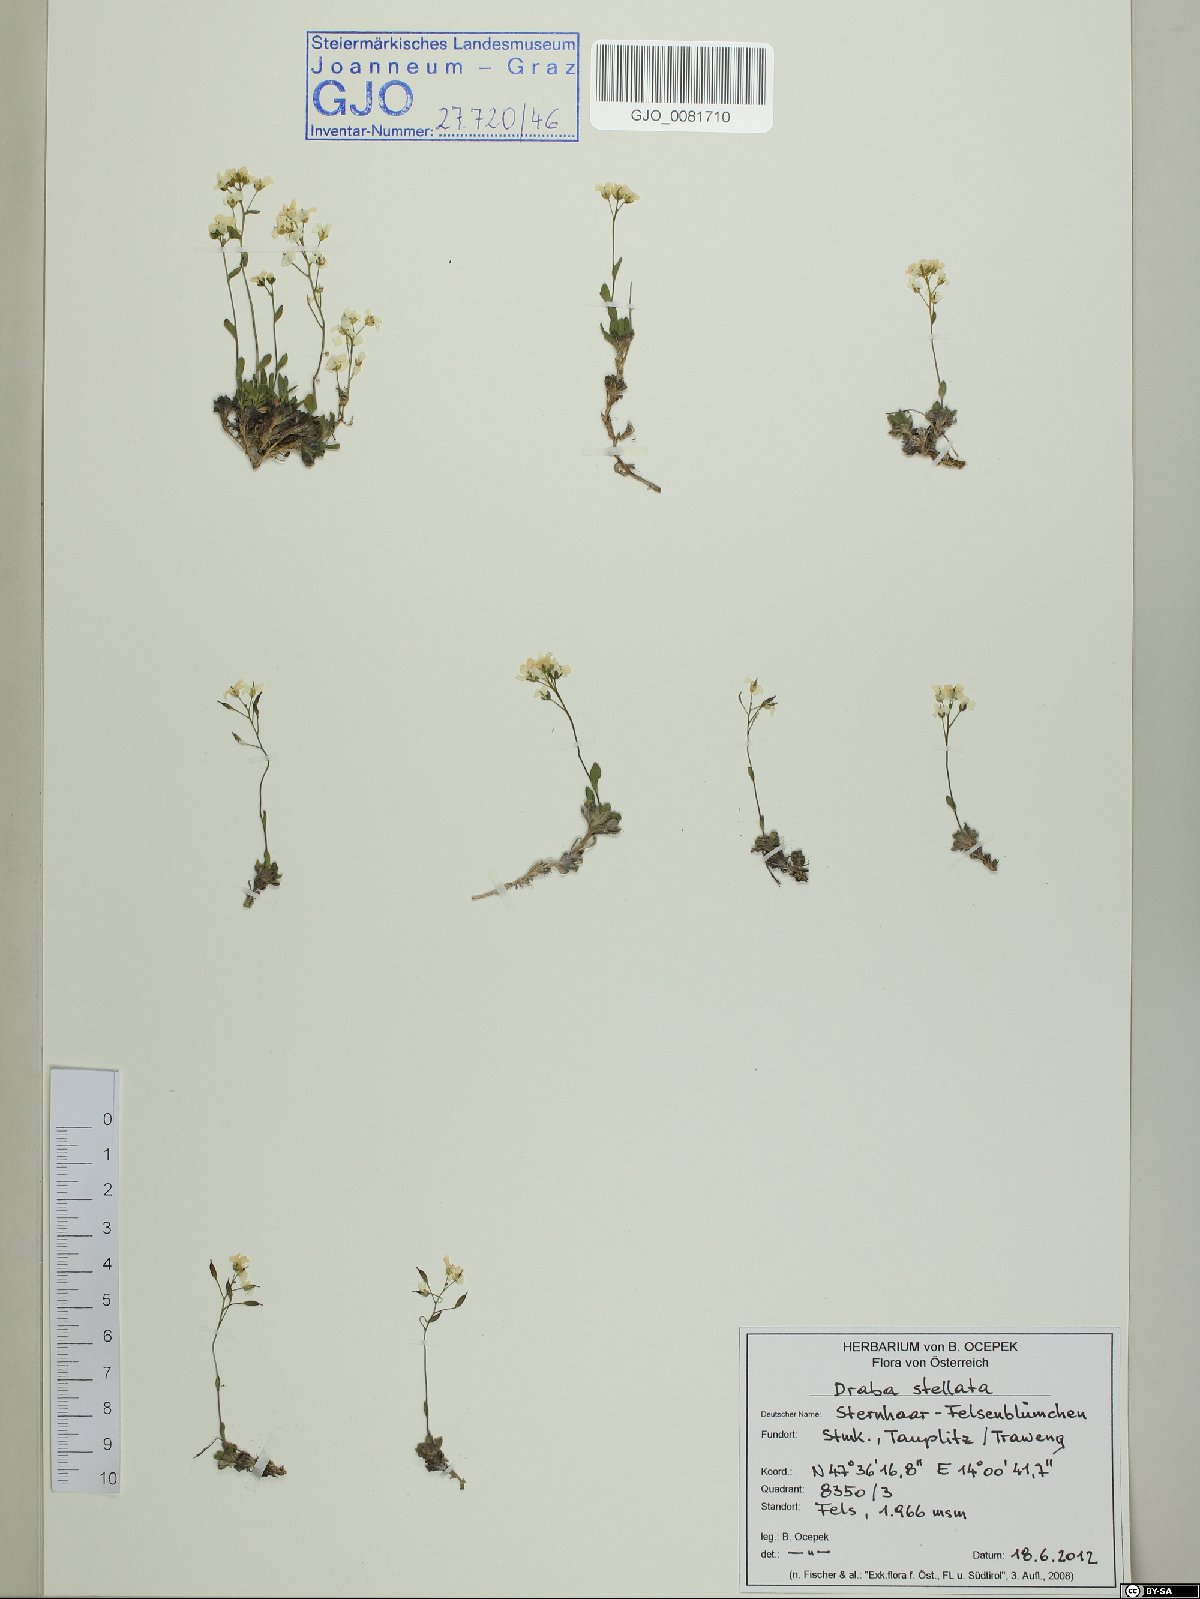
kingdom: Plantae
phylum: Tracheophyta
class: Magnoliopsida
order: Brassicales
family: Brassicaceae
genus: Draba
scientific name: Draba stellata
